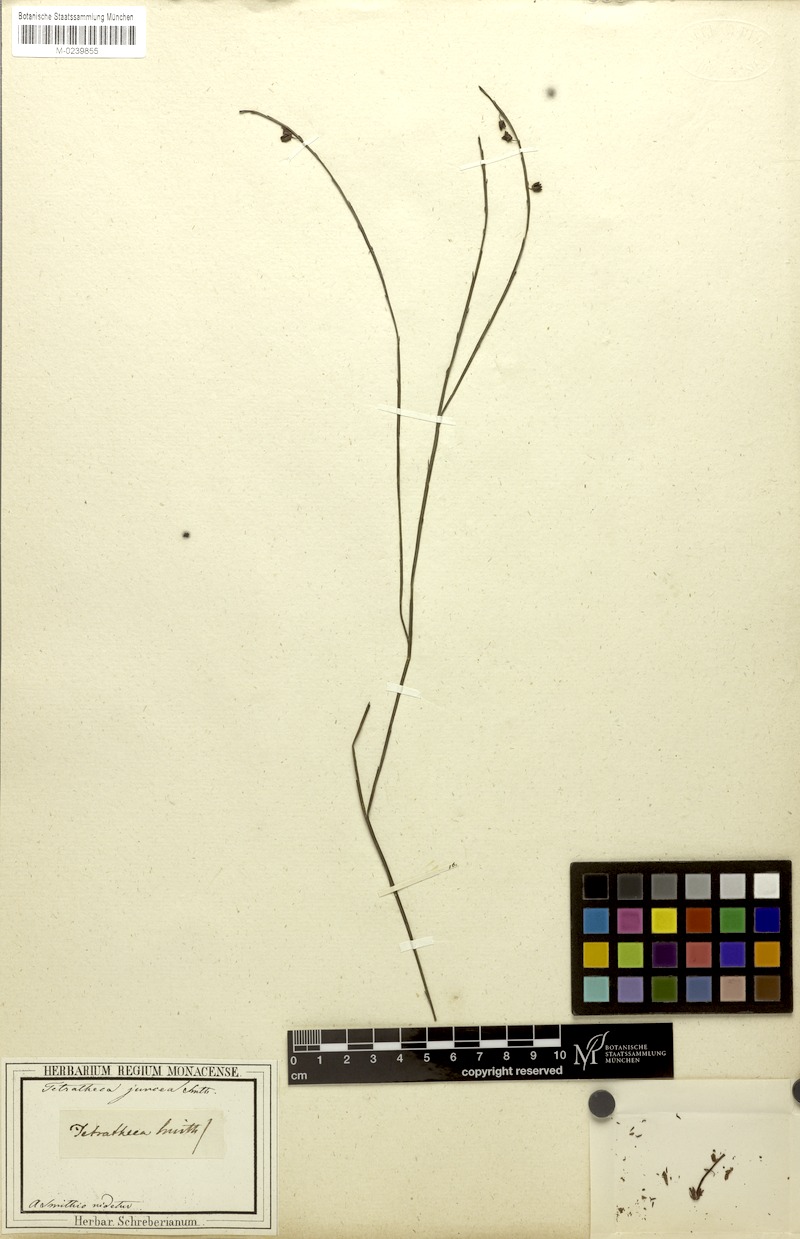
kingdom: Plantae
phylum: Tracheophyta
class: Magnoliopsida
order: Oxalidales
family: Elaeocarpaceae
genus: Tetratheca
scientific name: Tetratheca juncea
